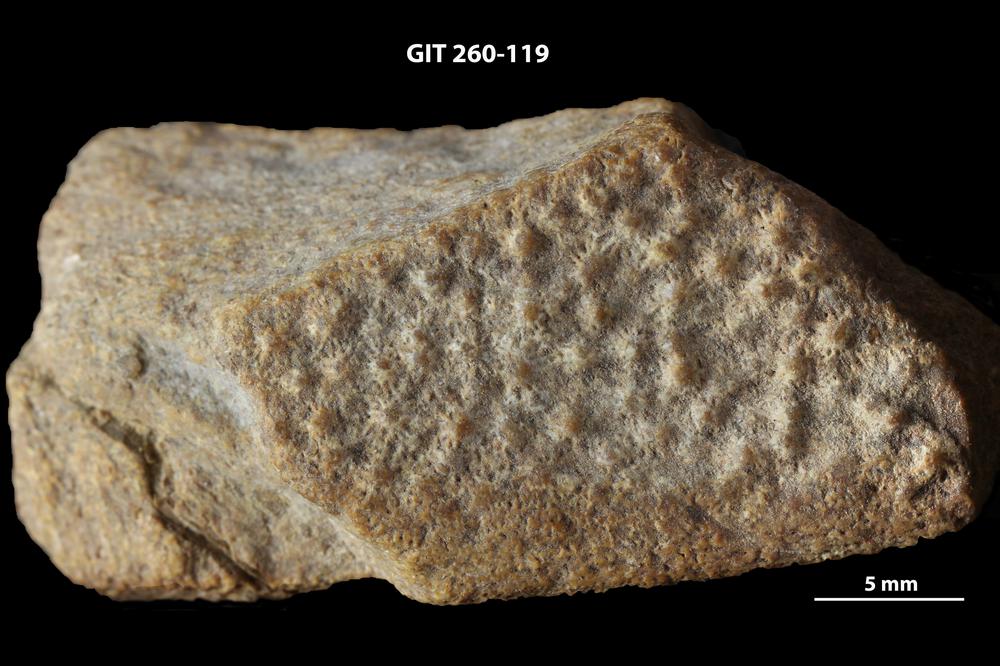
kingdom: Animalia
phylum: Chordata
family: Homostiidae
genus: Homostius
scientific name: Homostius
